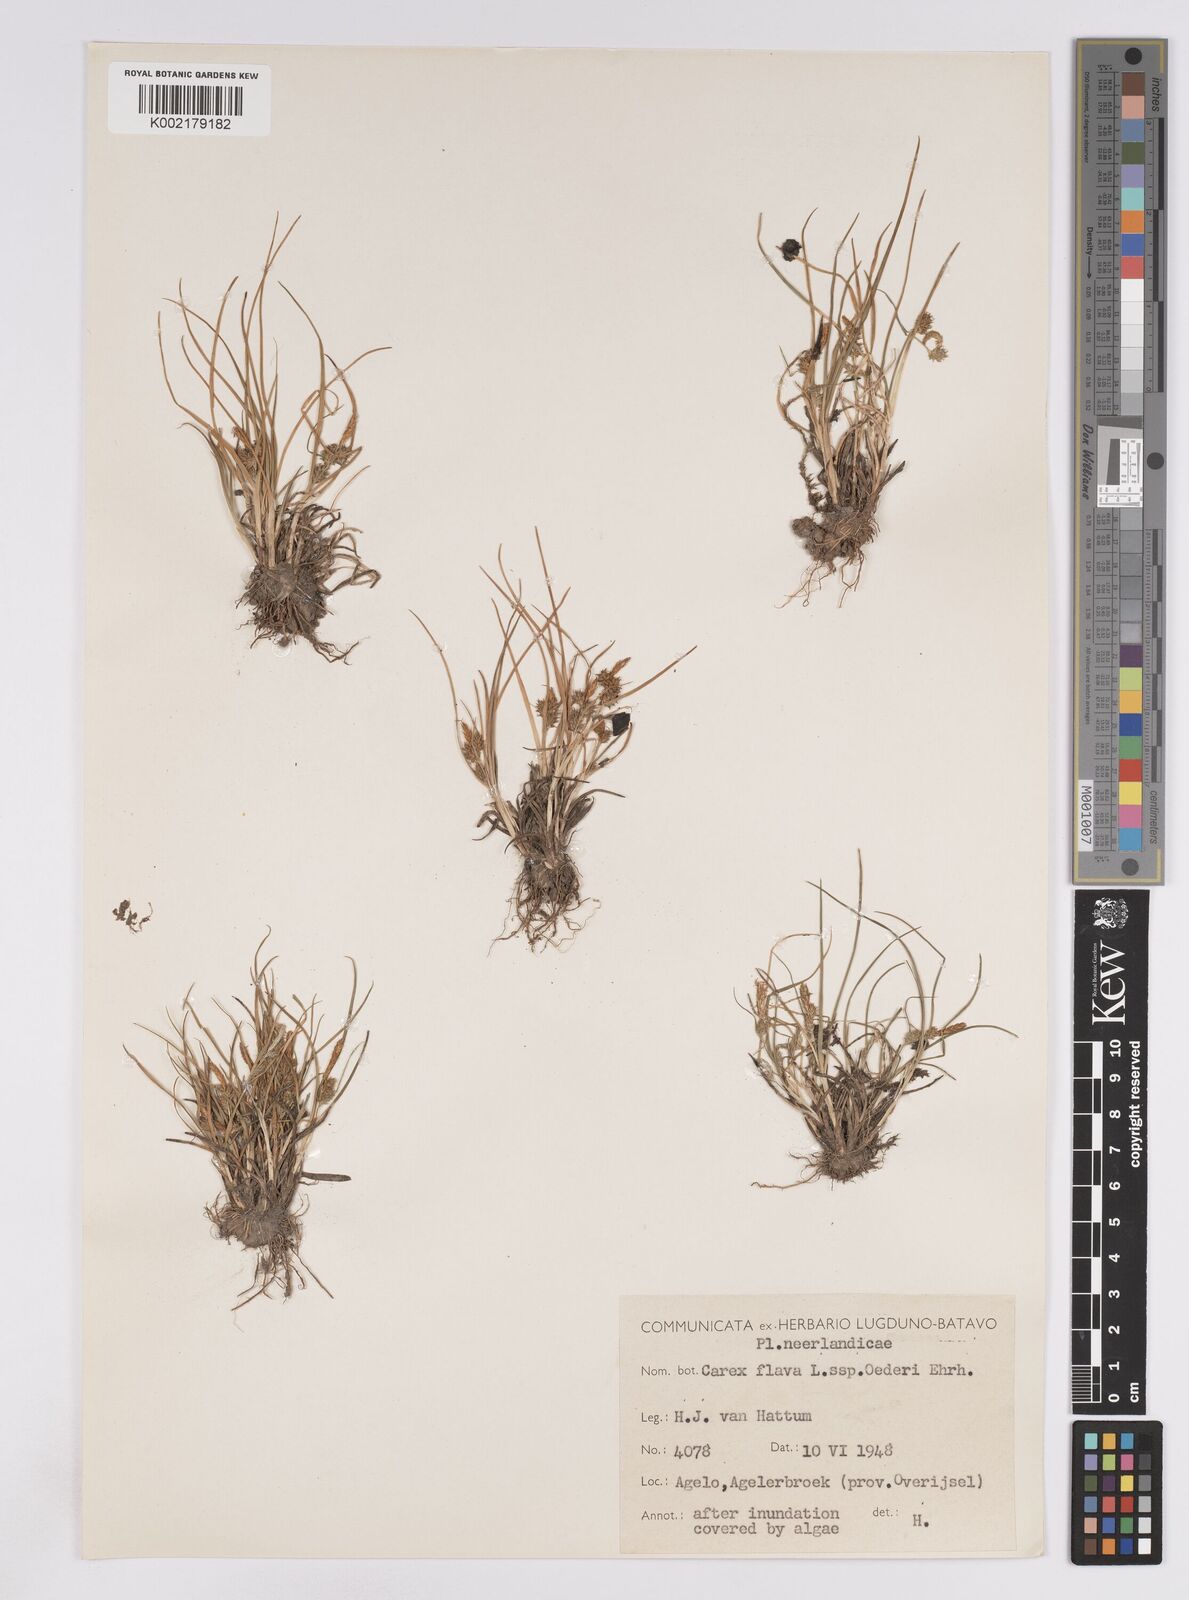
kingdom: Plantae
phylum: Tracheophyta
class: Liliopsida
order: Poales
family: Cyperaceae
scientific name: Cyperaceae
